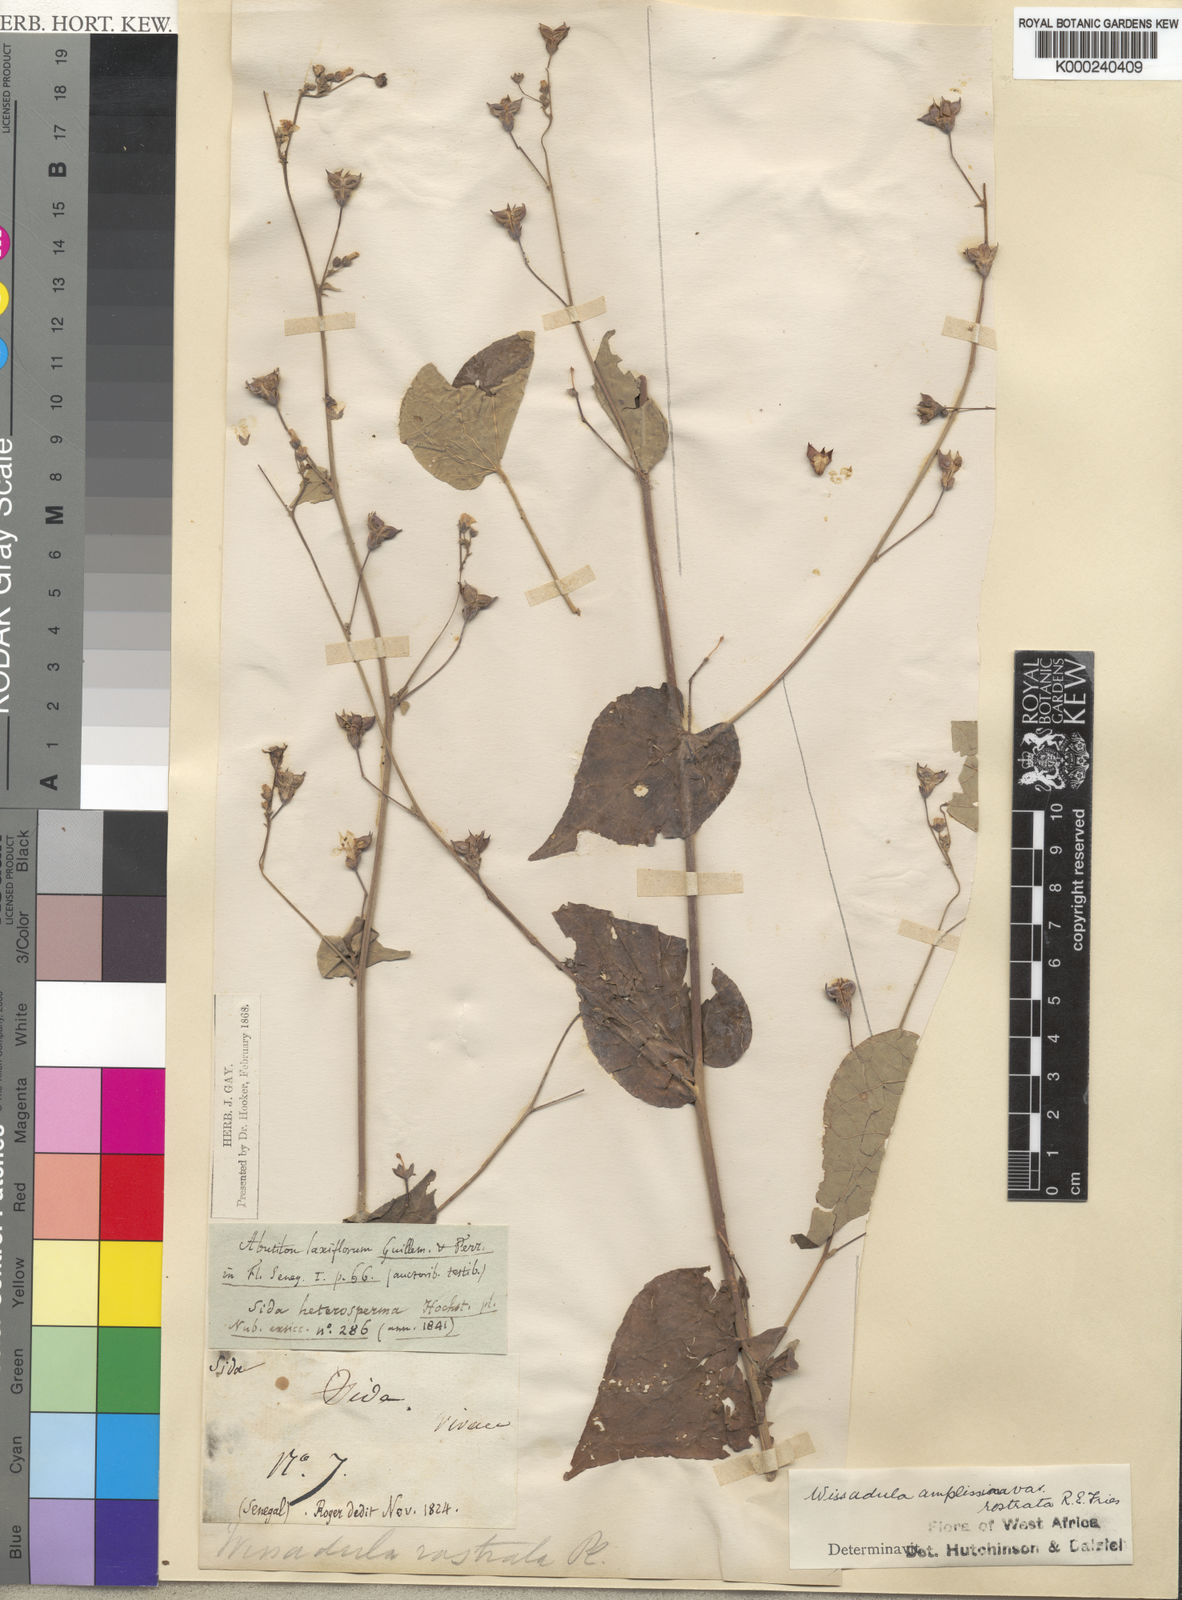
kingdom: Plantae
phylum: Tracheophyta
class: Magnoliopsida
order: Malvales
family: Malvaceae
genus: Wissadula
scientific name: Wissadula amplissima
